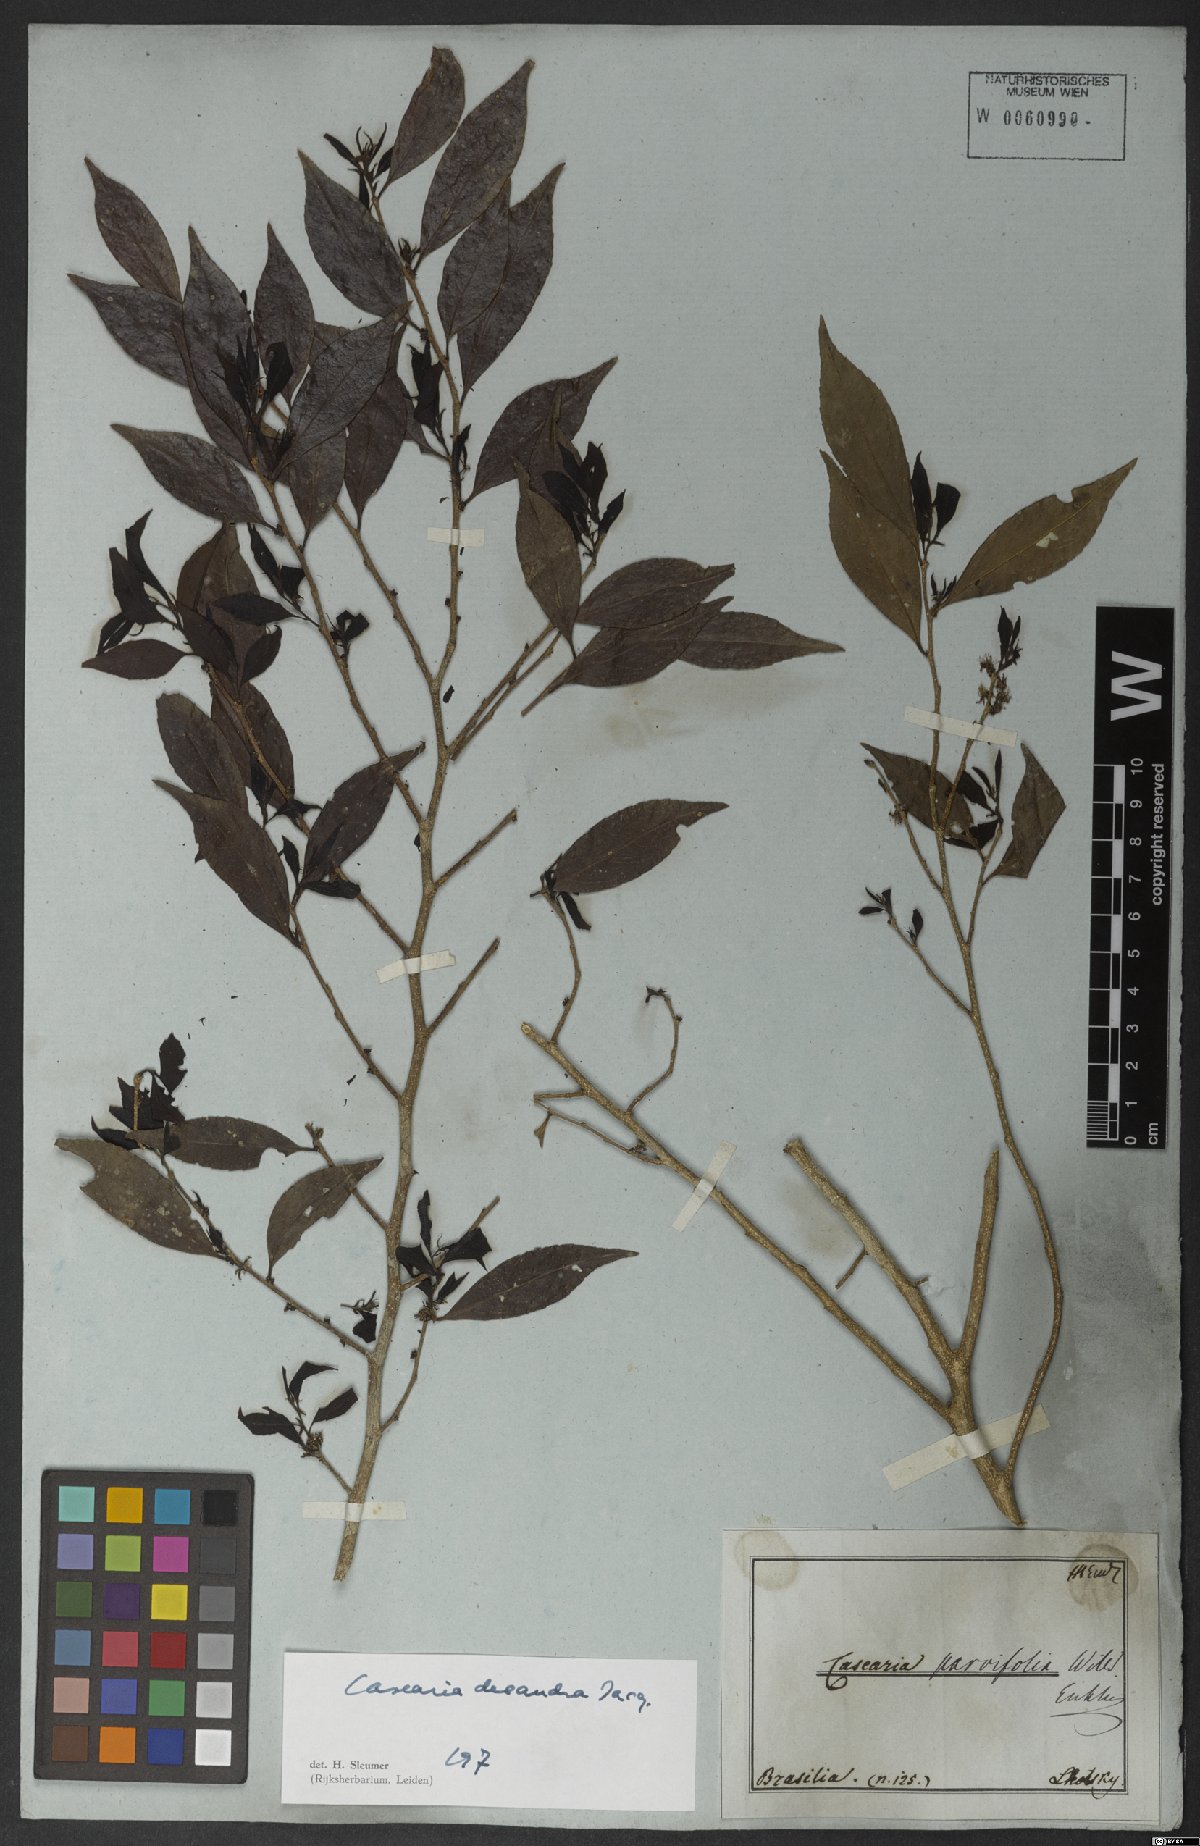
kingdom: Plantae
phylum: Tracheophyta
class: Magnoliopsida
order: Malpighiales
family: Salicaceae
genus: Casearia
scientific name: Casearia decandra
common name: Crack open
